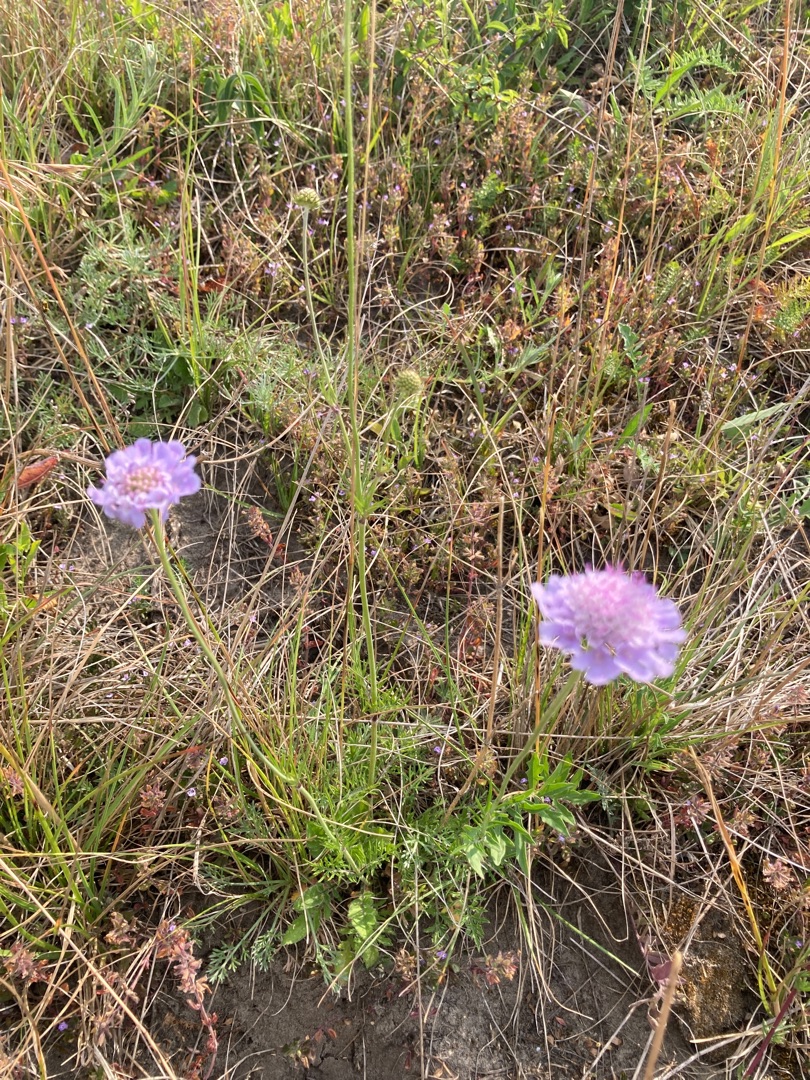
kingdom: Plantae
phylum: Tracheophyta
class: Magnoliopsida
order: Dipsacales
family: Caprifoliaceae
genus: Scabiosa
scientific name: Scabiosa columbaria
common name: Due-skabiose
